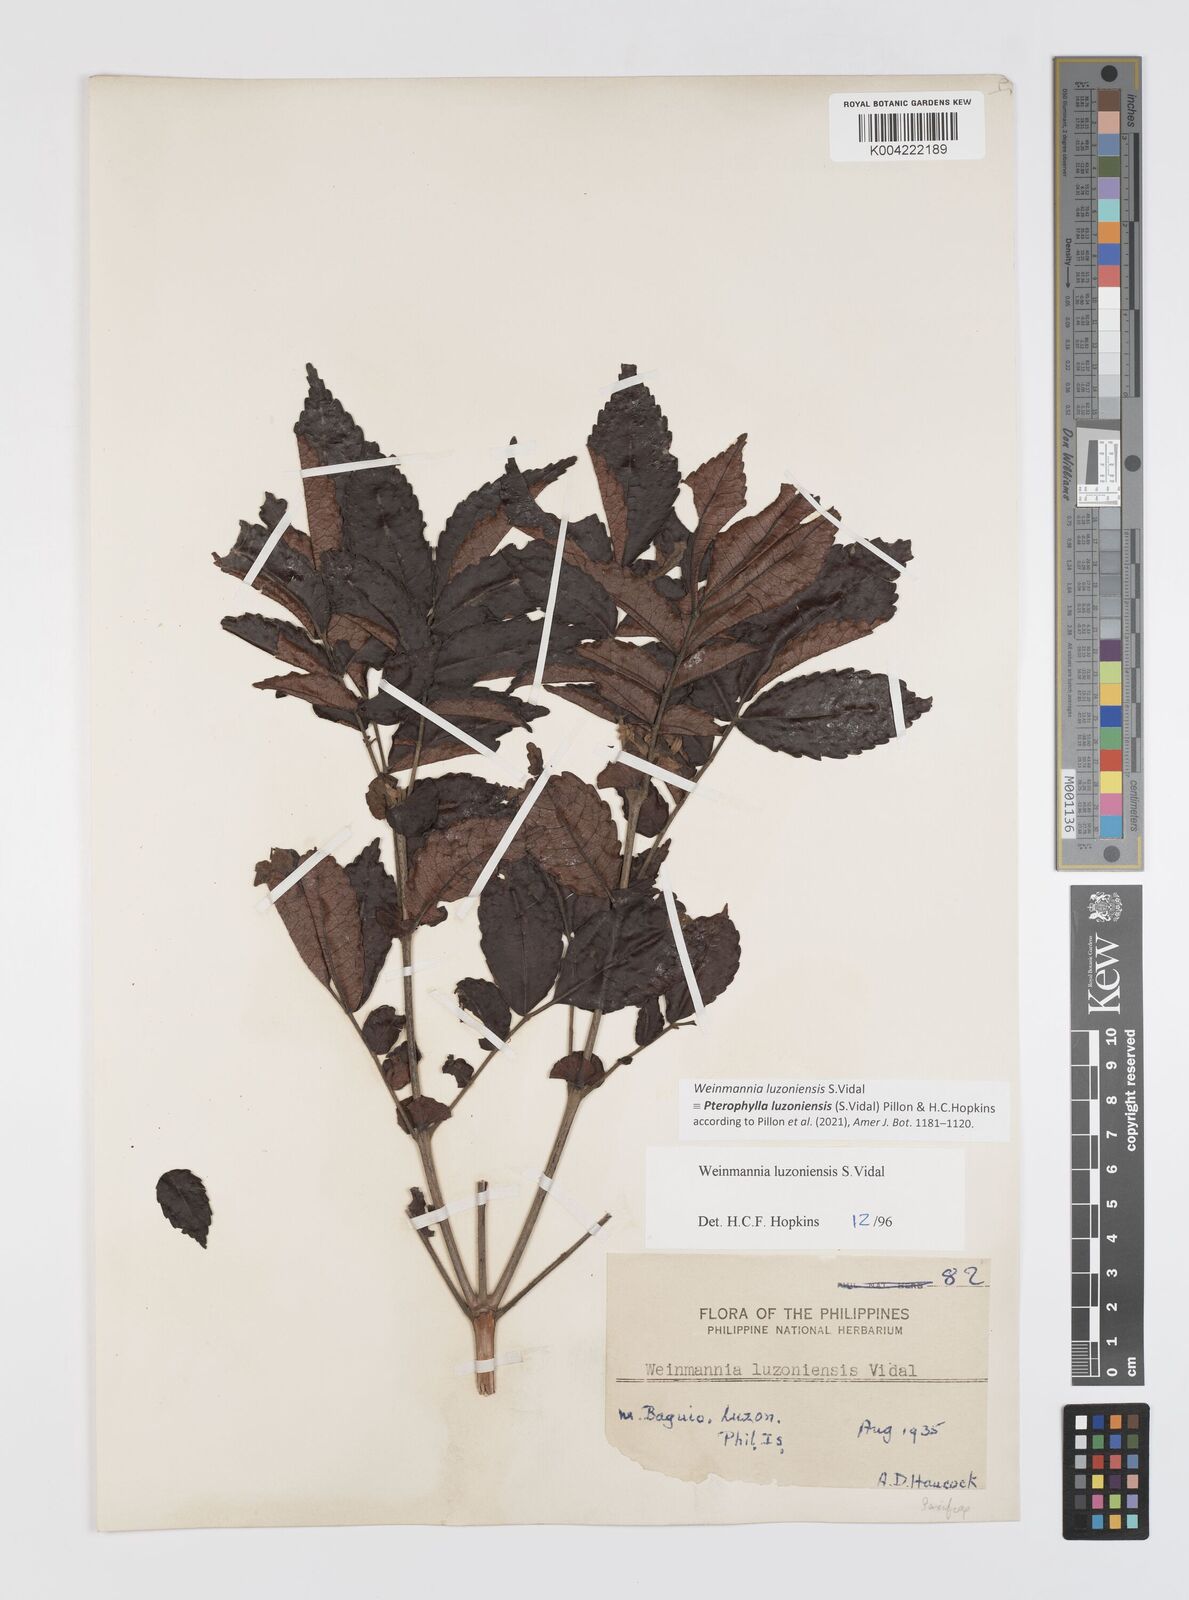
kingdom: Plantae
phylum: Tracheophyta
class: Magnoliopsida
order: Oxalidales
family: Cunoniaceae
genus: Pterophylla
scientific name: Pterophylla luzoniensis
